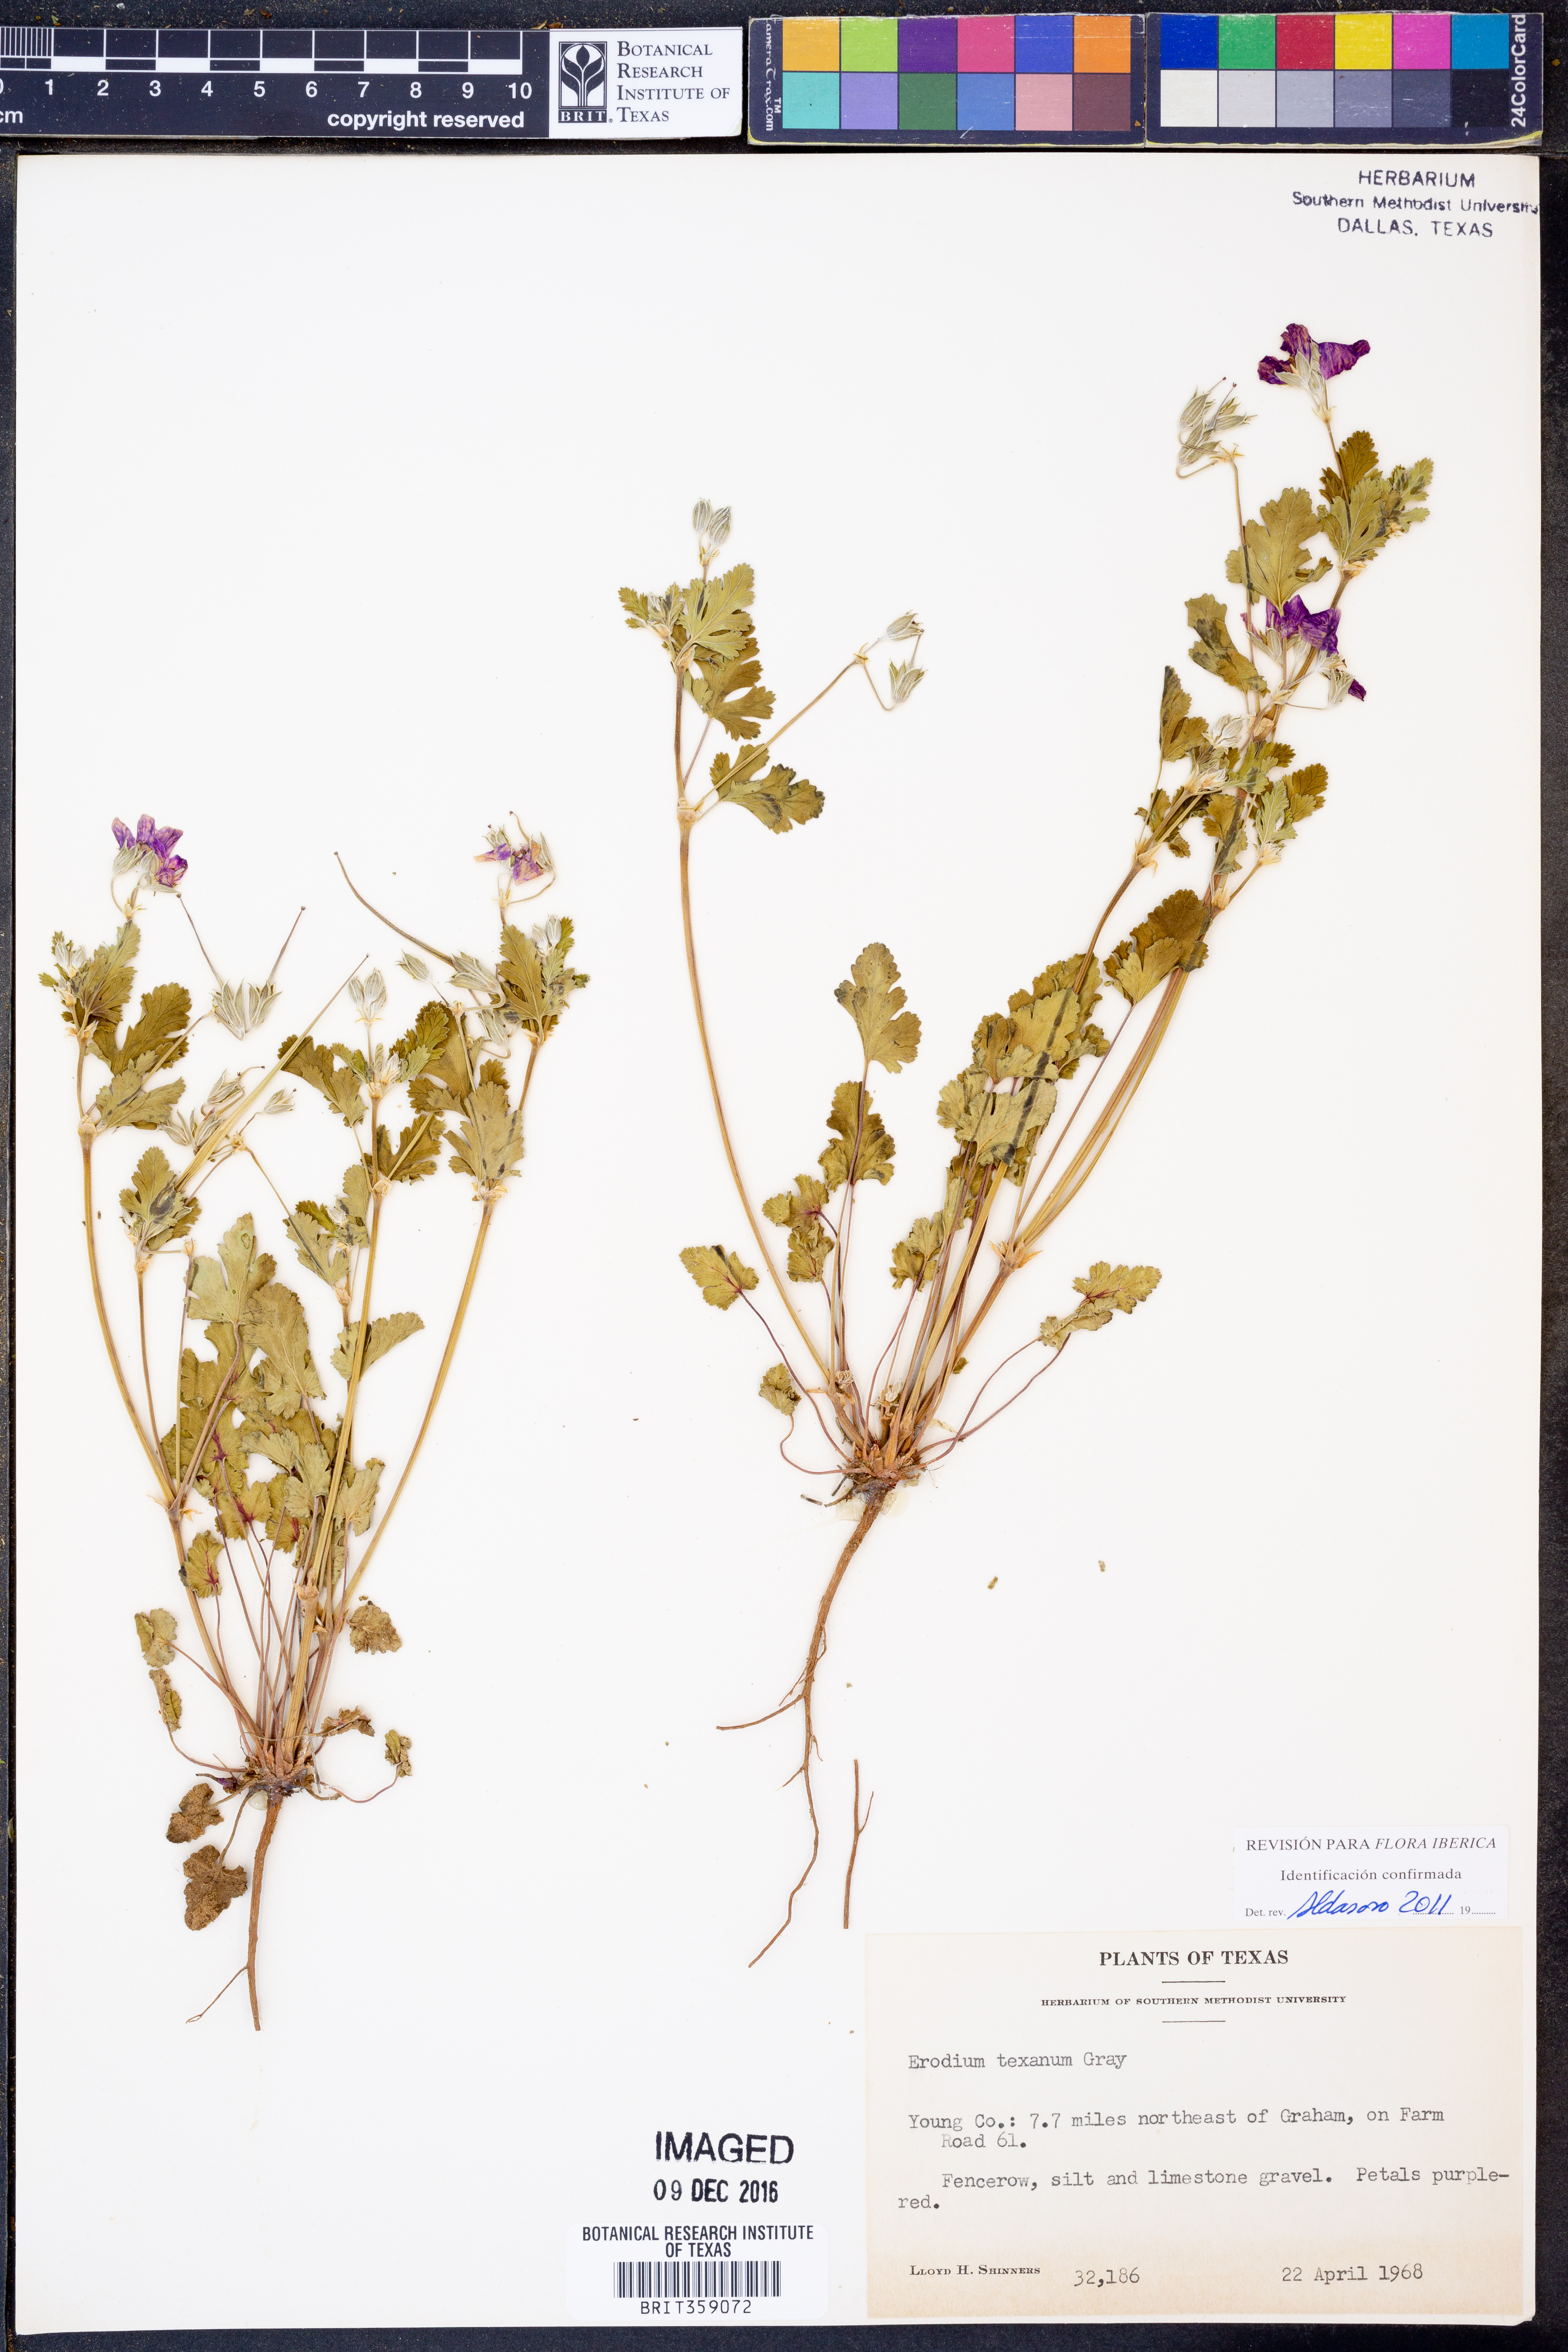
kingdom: Plantae
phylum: Tracheophyta
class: Magnoliopsida
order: Geraniales
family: Geraniaceae
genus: Erodium
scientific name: Erodium texanum
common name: Texas stork's-bill
